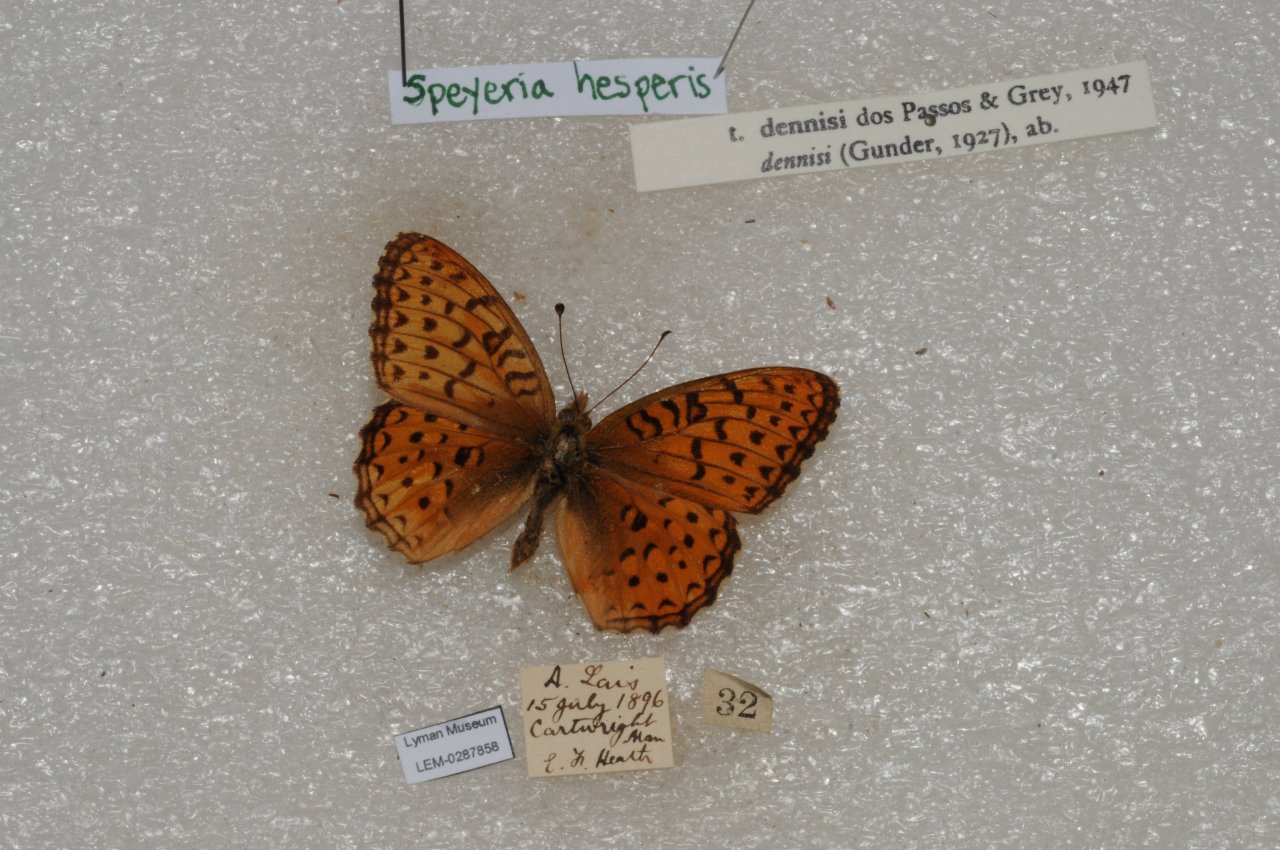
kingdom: Animalia
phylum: Arthropoda
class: Insecta
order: Lepidoptera
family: Nymphalidae
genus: Speyeria
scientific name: Speyeria atlantis
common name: Northwestern Fritillary
